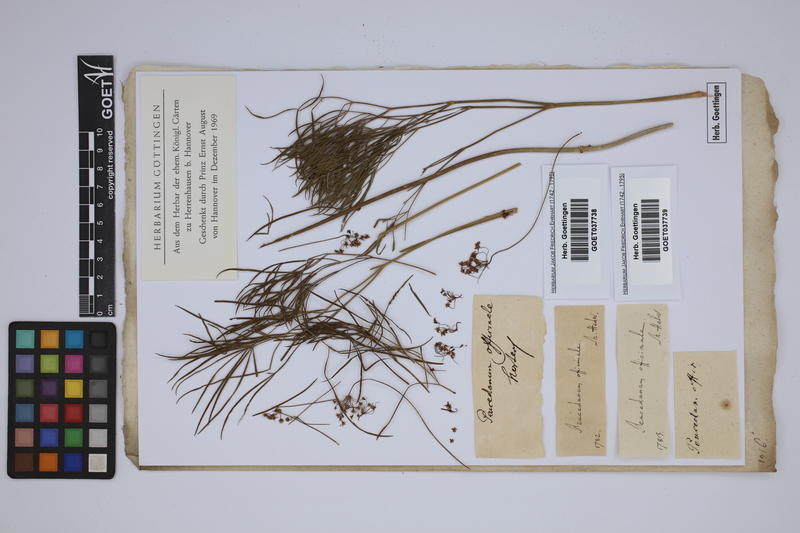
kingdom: Plantae
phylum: Tracheophyta
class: Magnoliopsida
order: Apiales
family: Apiaceae
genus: Peucedanum
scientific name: Peucedanum officinale
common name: Sulphurweed
